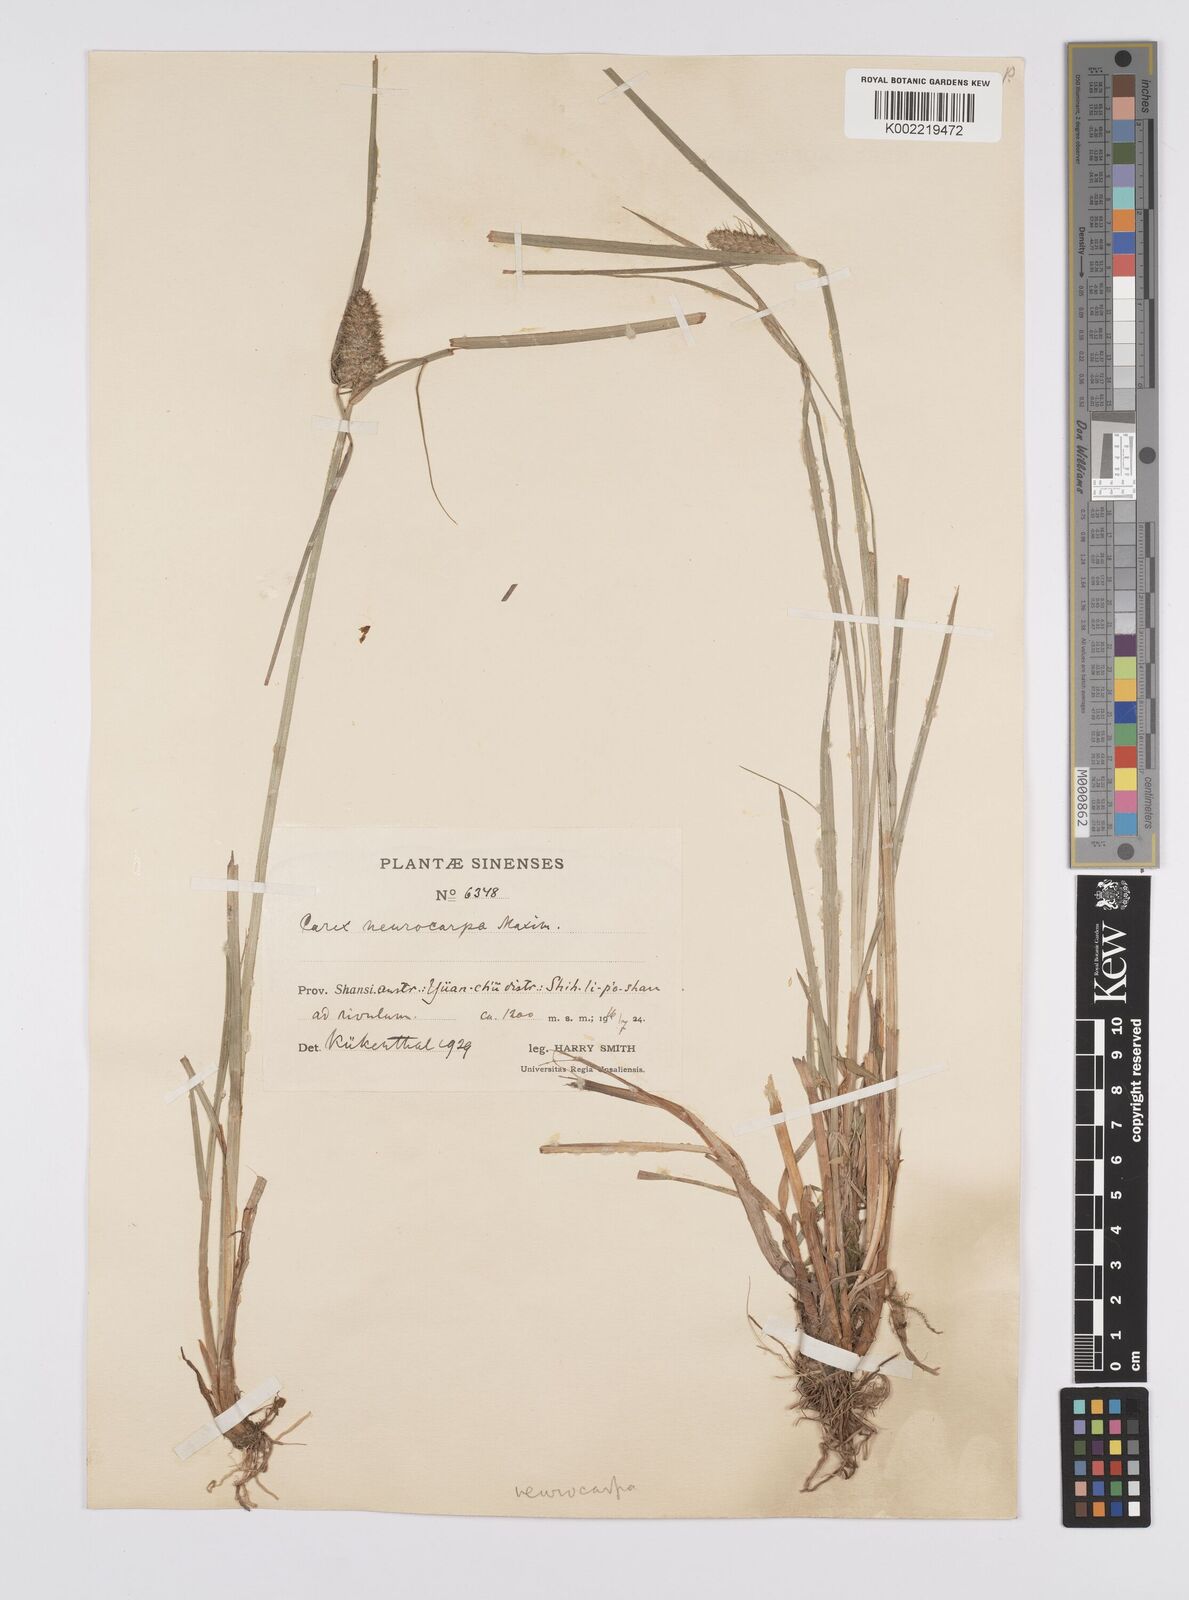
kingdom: Plantae
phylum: Tracheophyta
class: Liliopsida
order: Poales
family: Cyperaceae
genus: Carex
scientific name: Carex neurocarpa
